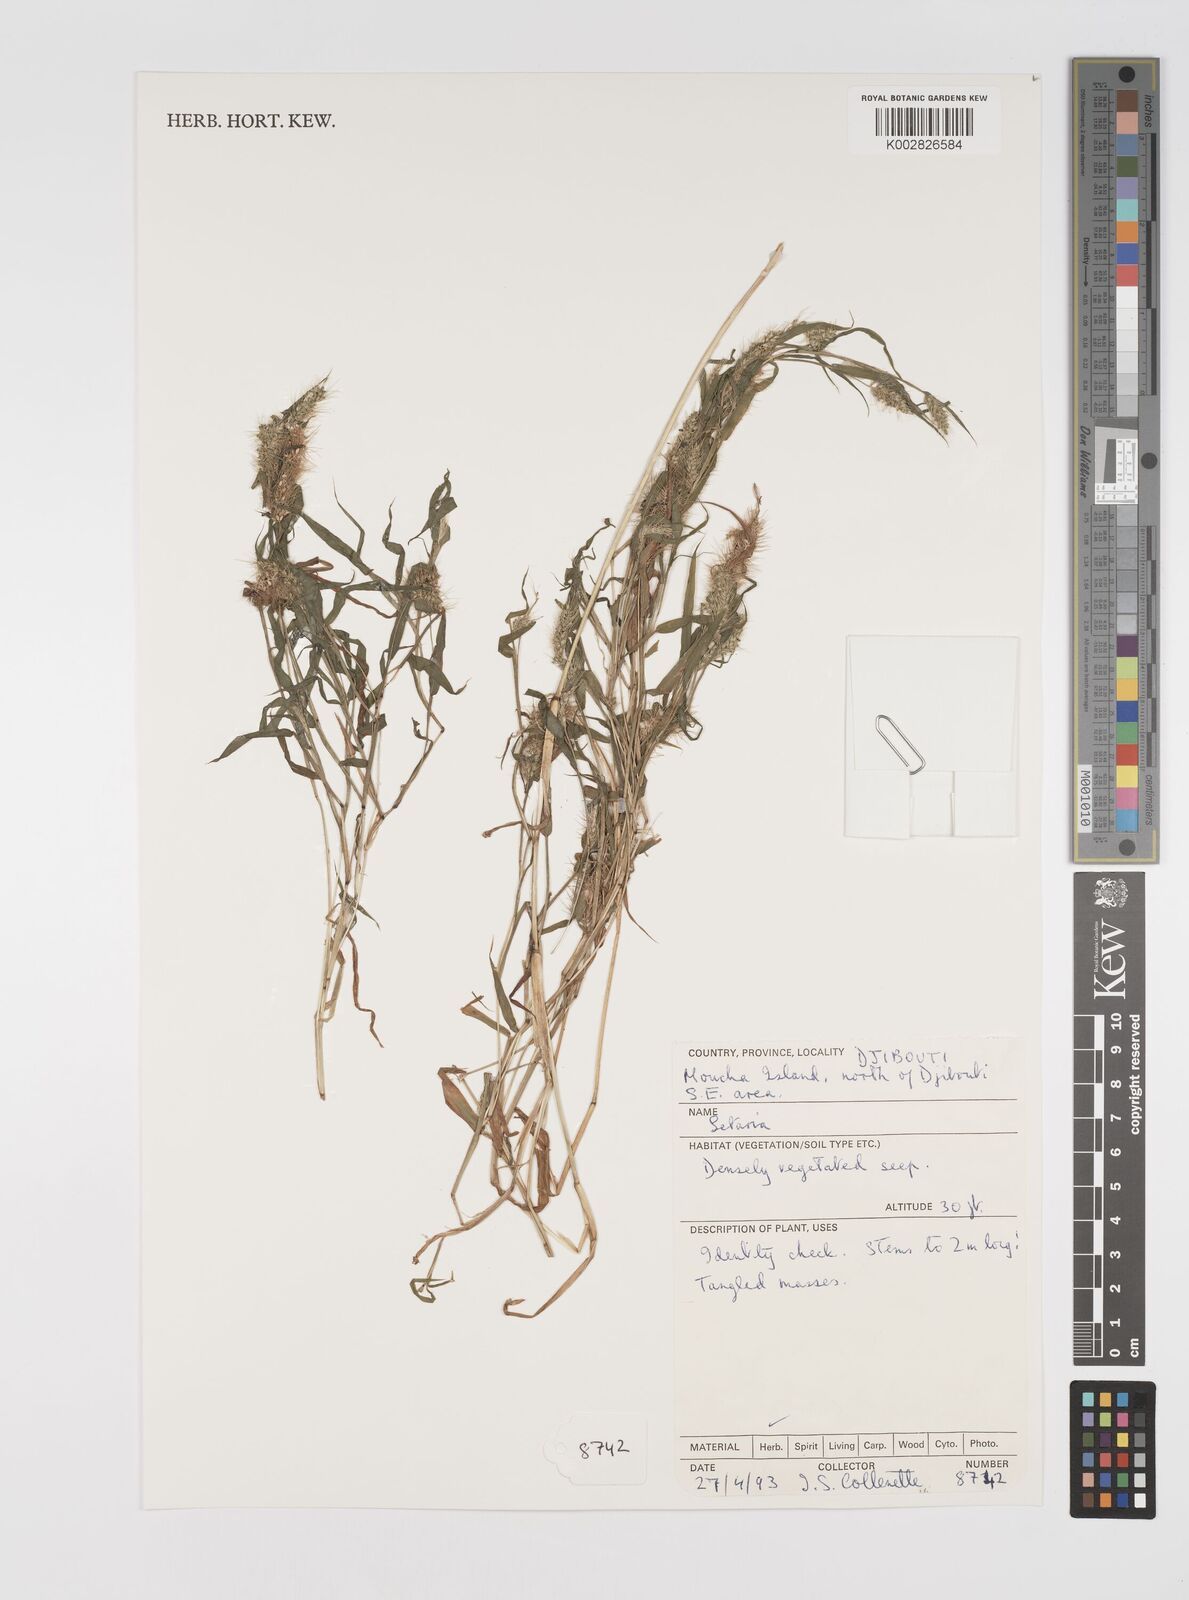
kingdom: Plantae
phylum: Tracheophyta
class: Liliopsida
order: Poales
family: Poaceae
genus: Setaria
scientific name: Setaria
